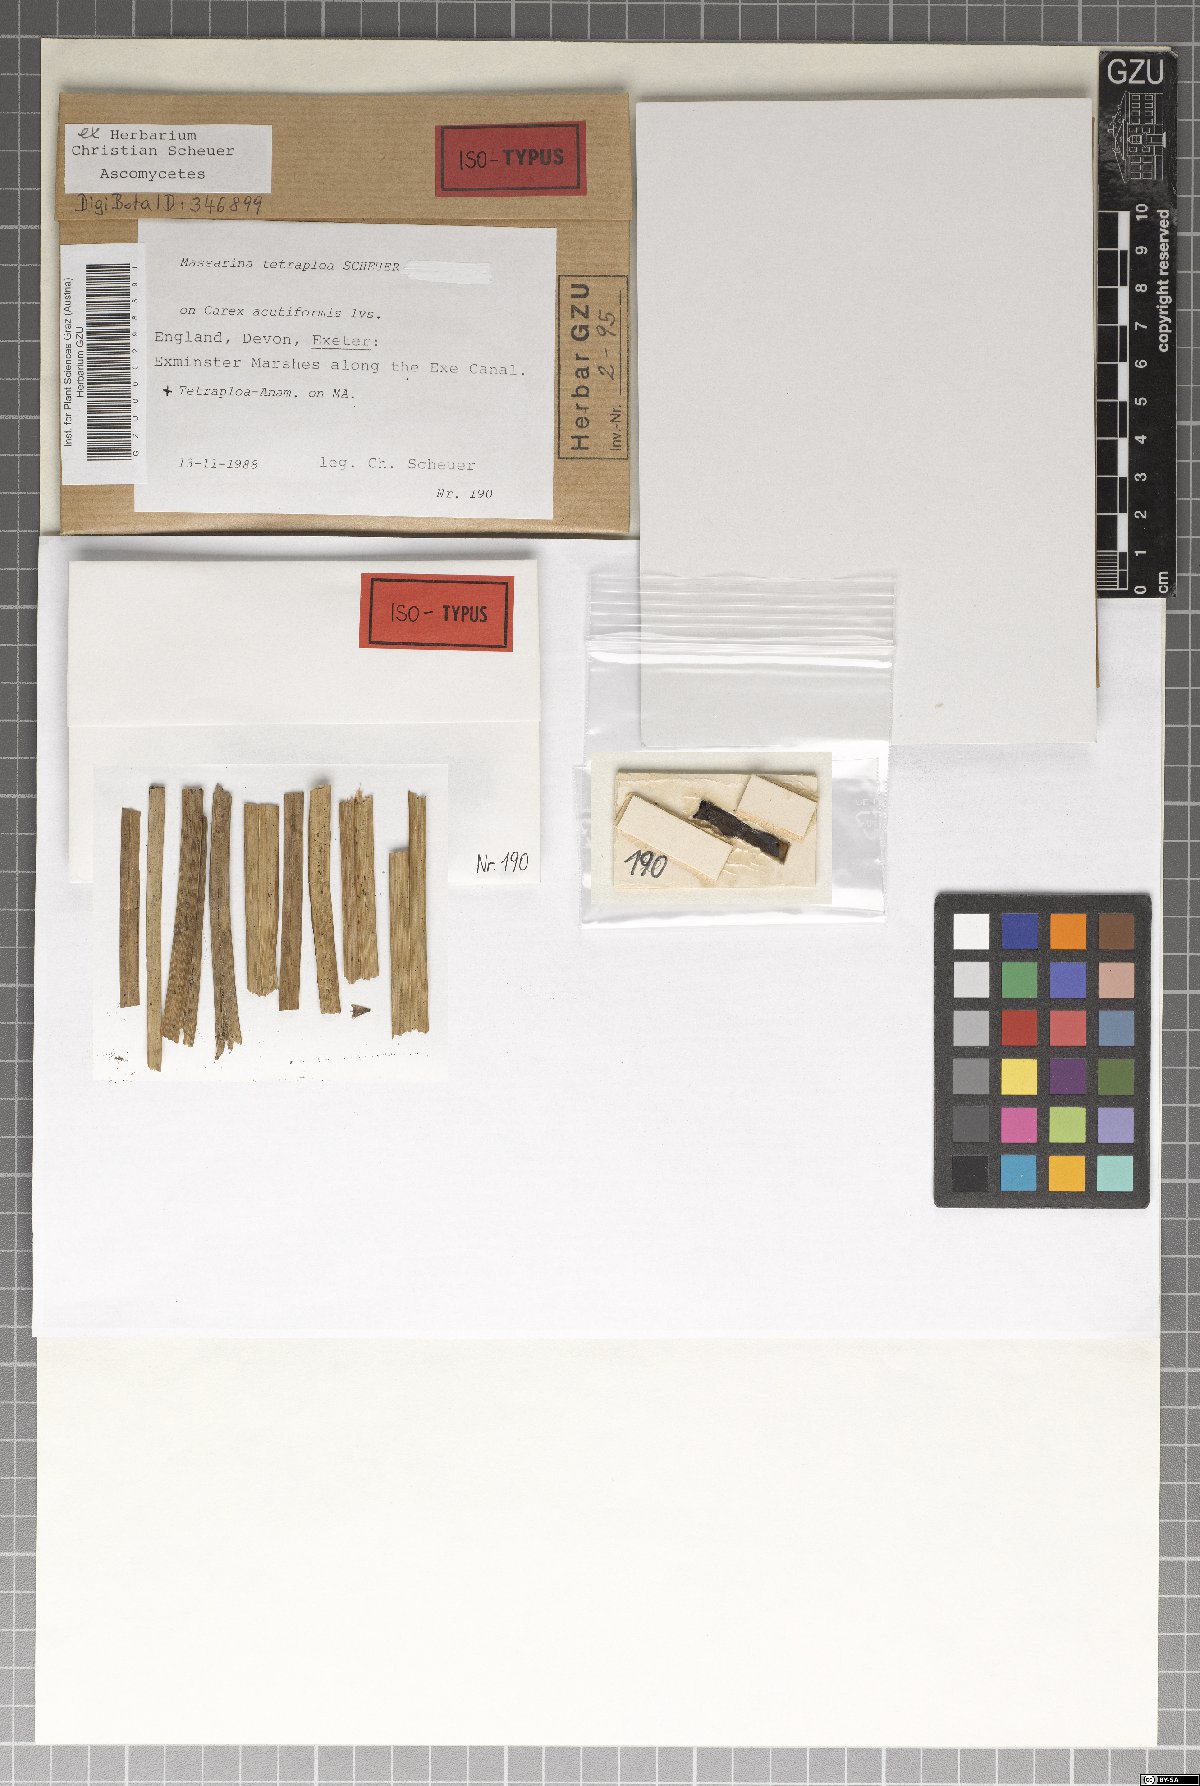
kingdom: Fungi
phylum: Ascomycota
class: Dothideomycetes
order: Pleosporales
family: Tetraplosphaeriaceae
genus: Tetraploa
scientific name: Tetraploa scheueri
